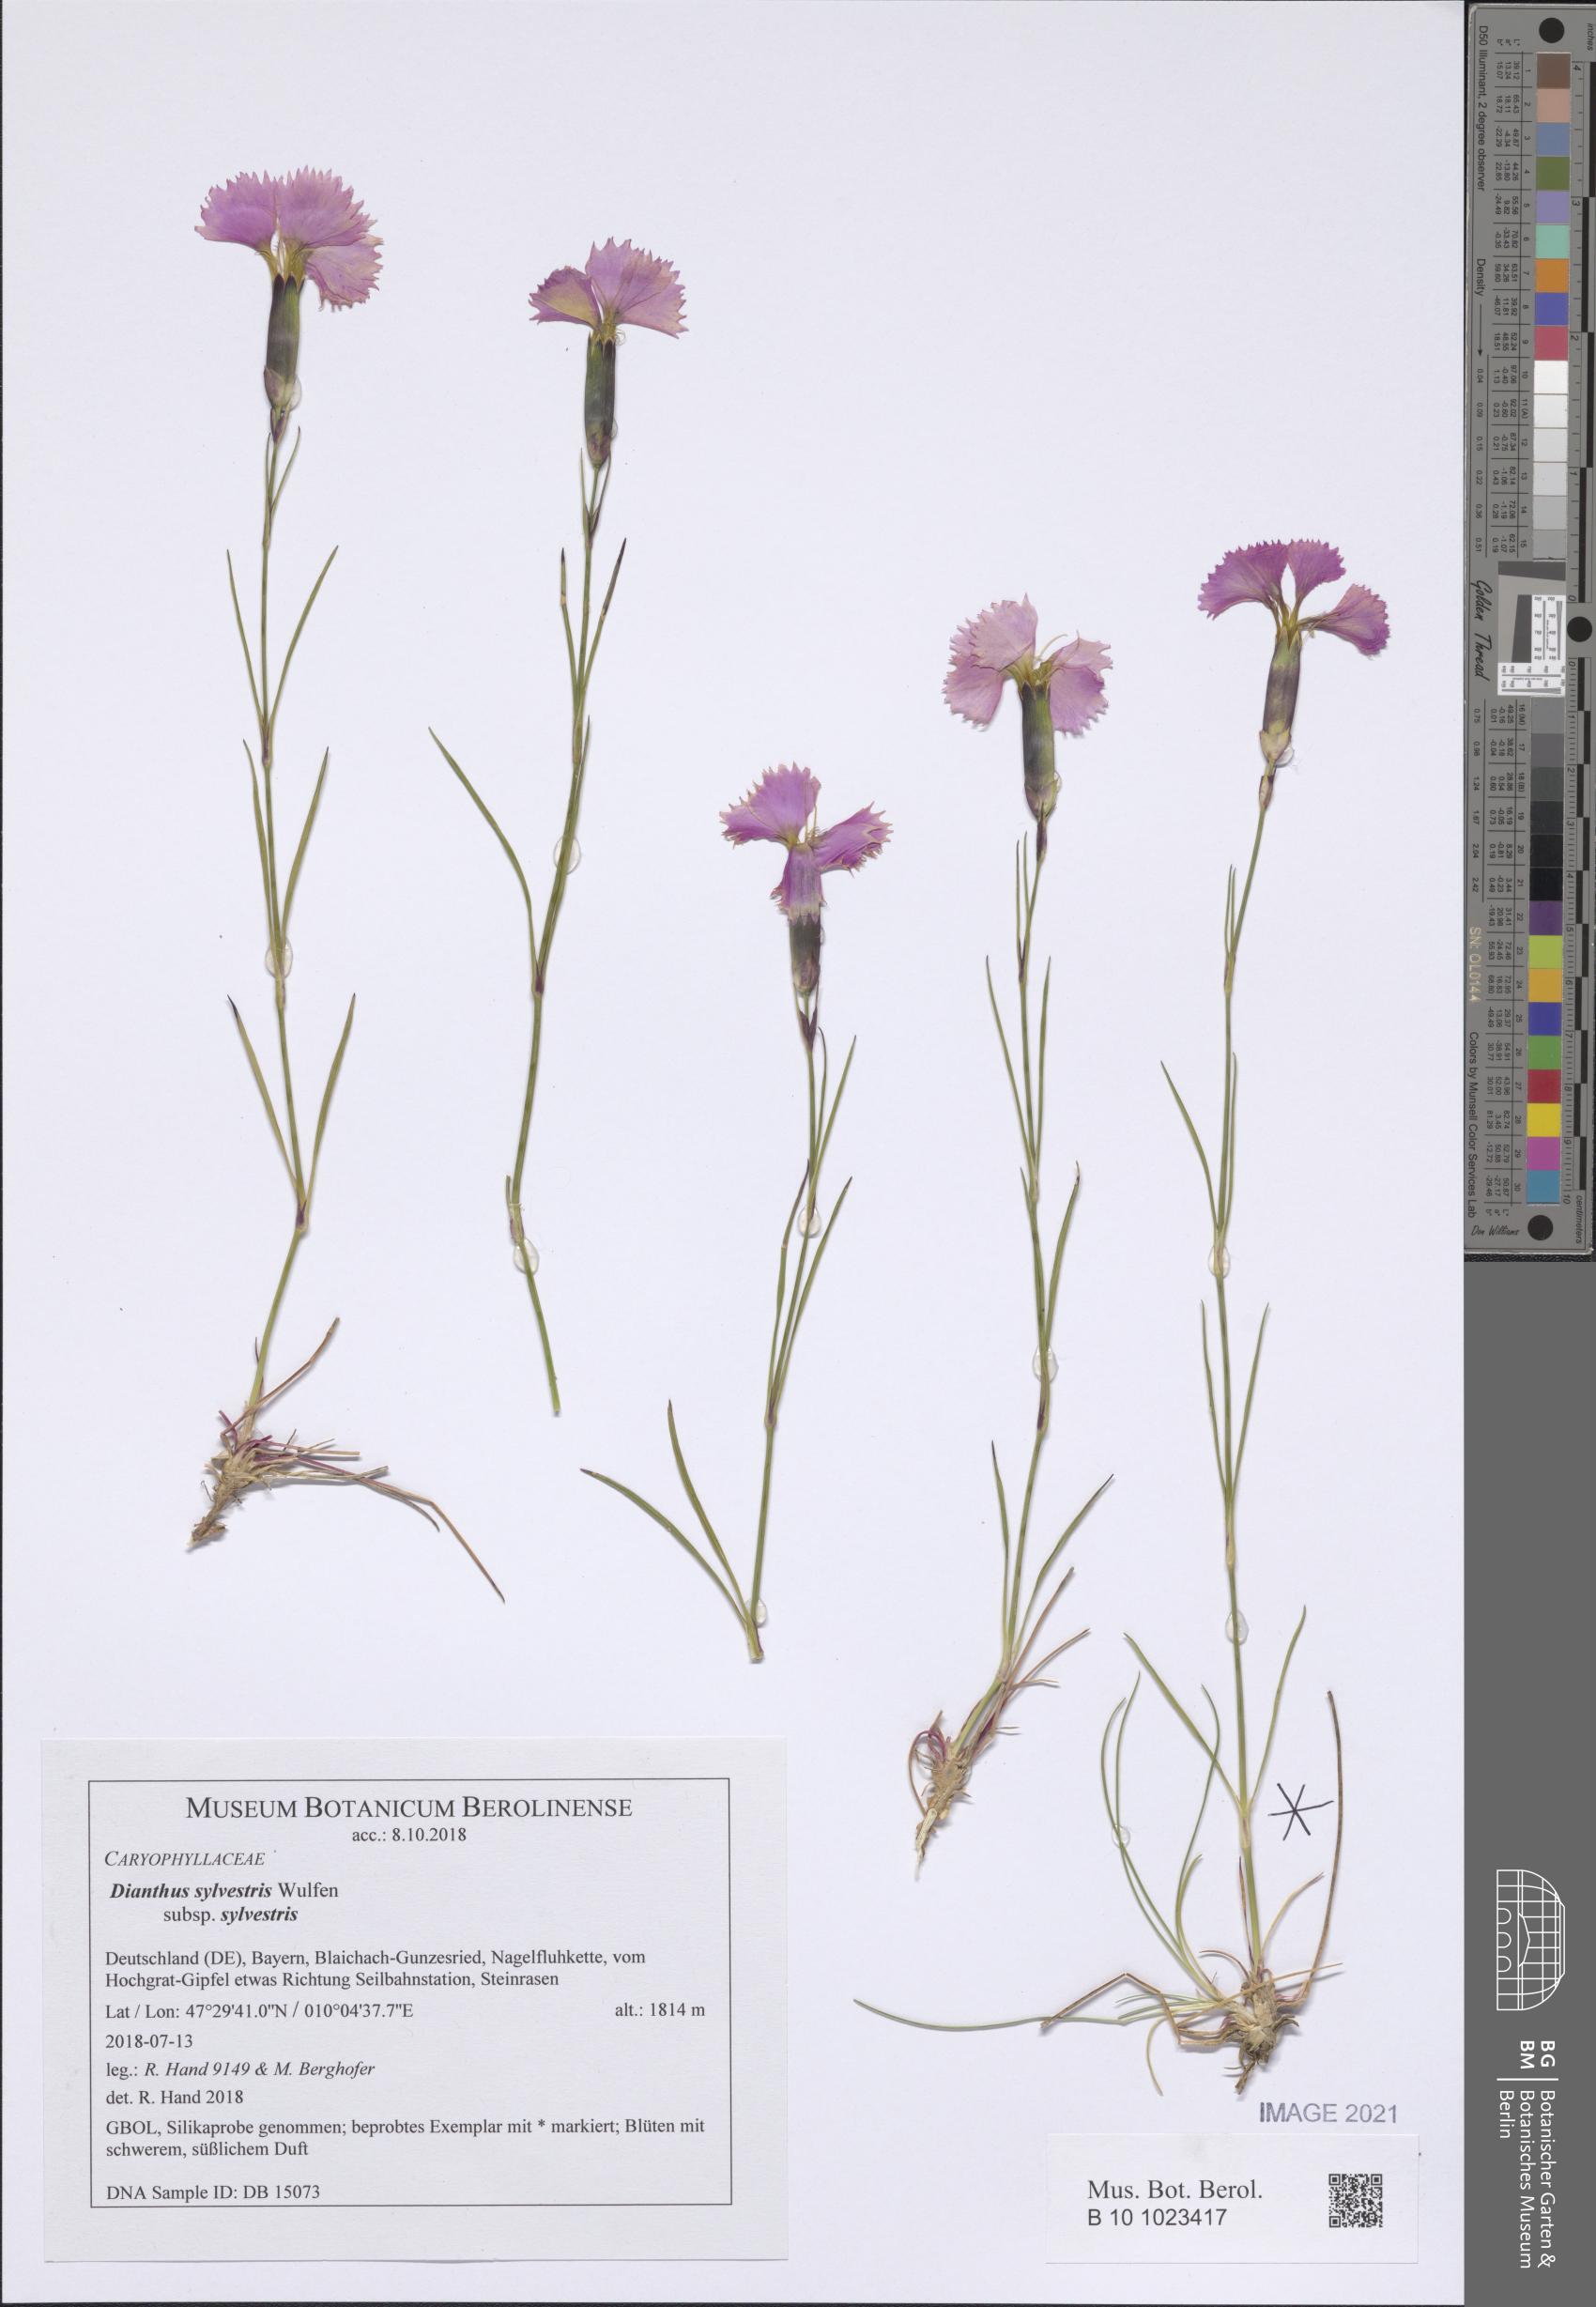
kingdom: Plantae
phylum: Tracheophyta
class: Magnoliopsida
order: Caryophyllales
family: Caryophyllaceae
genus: Dianthus
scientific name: Dianthus sylvestris
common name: Wood pink
